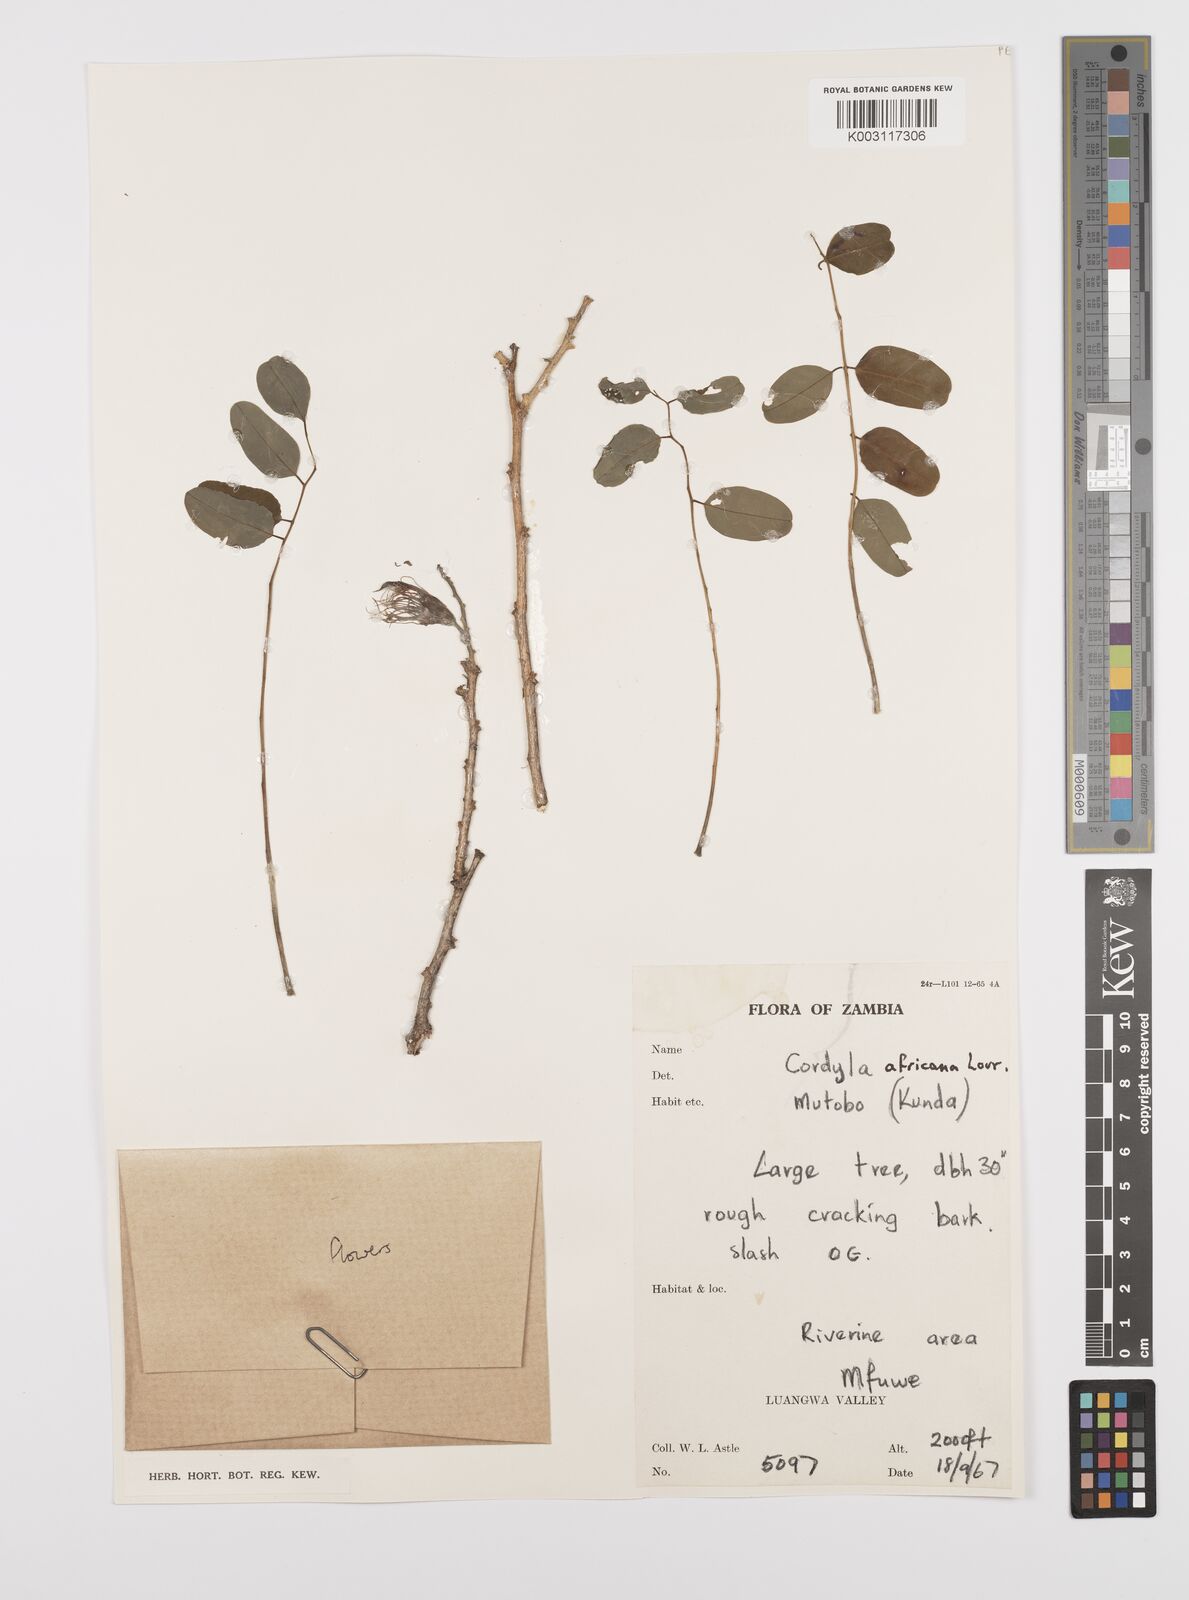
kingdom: Plantae
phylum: Tracheophyta
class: Magnoliopsida
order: Fabales
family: Fabaceae
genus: Cordyla
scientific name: Cordyla africana
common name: Wild mango
